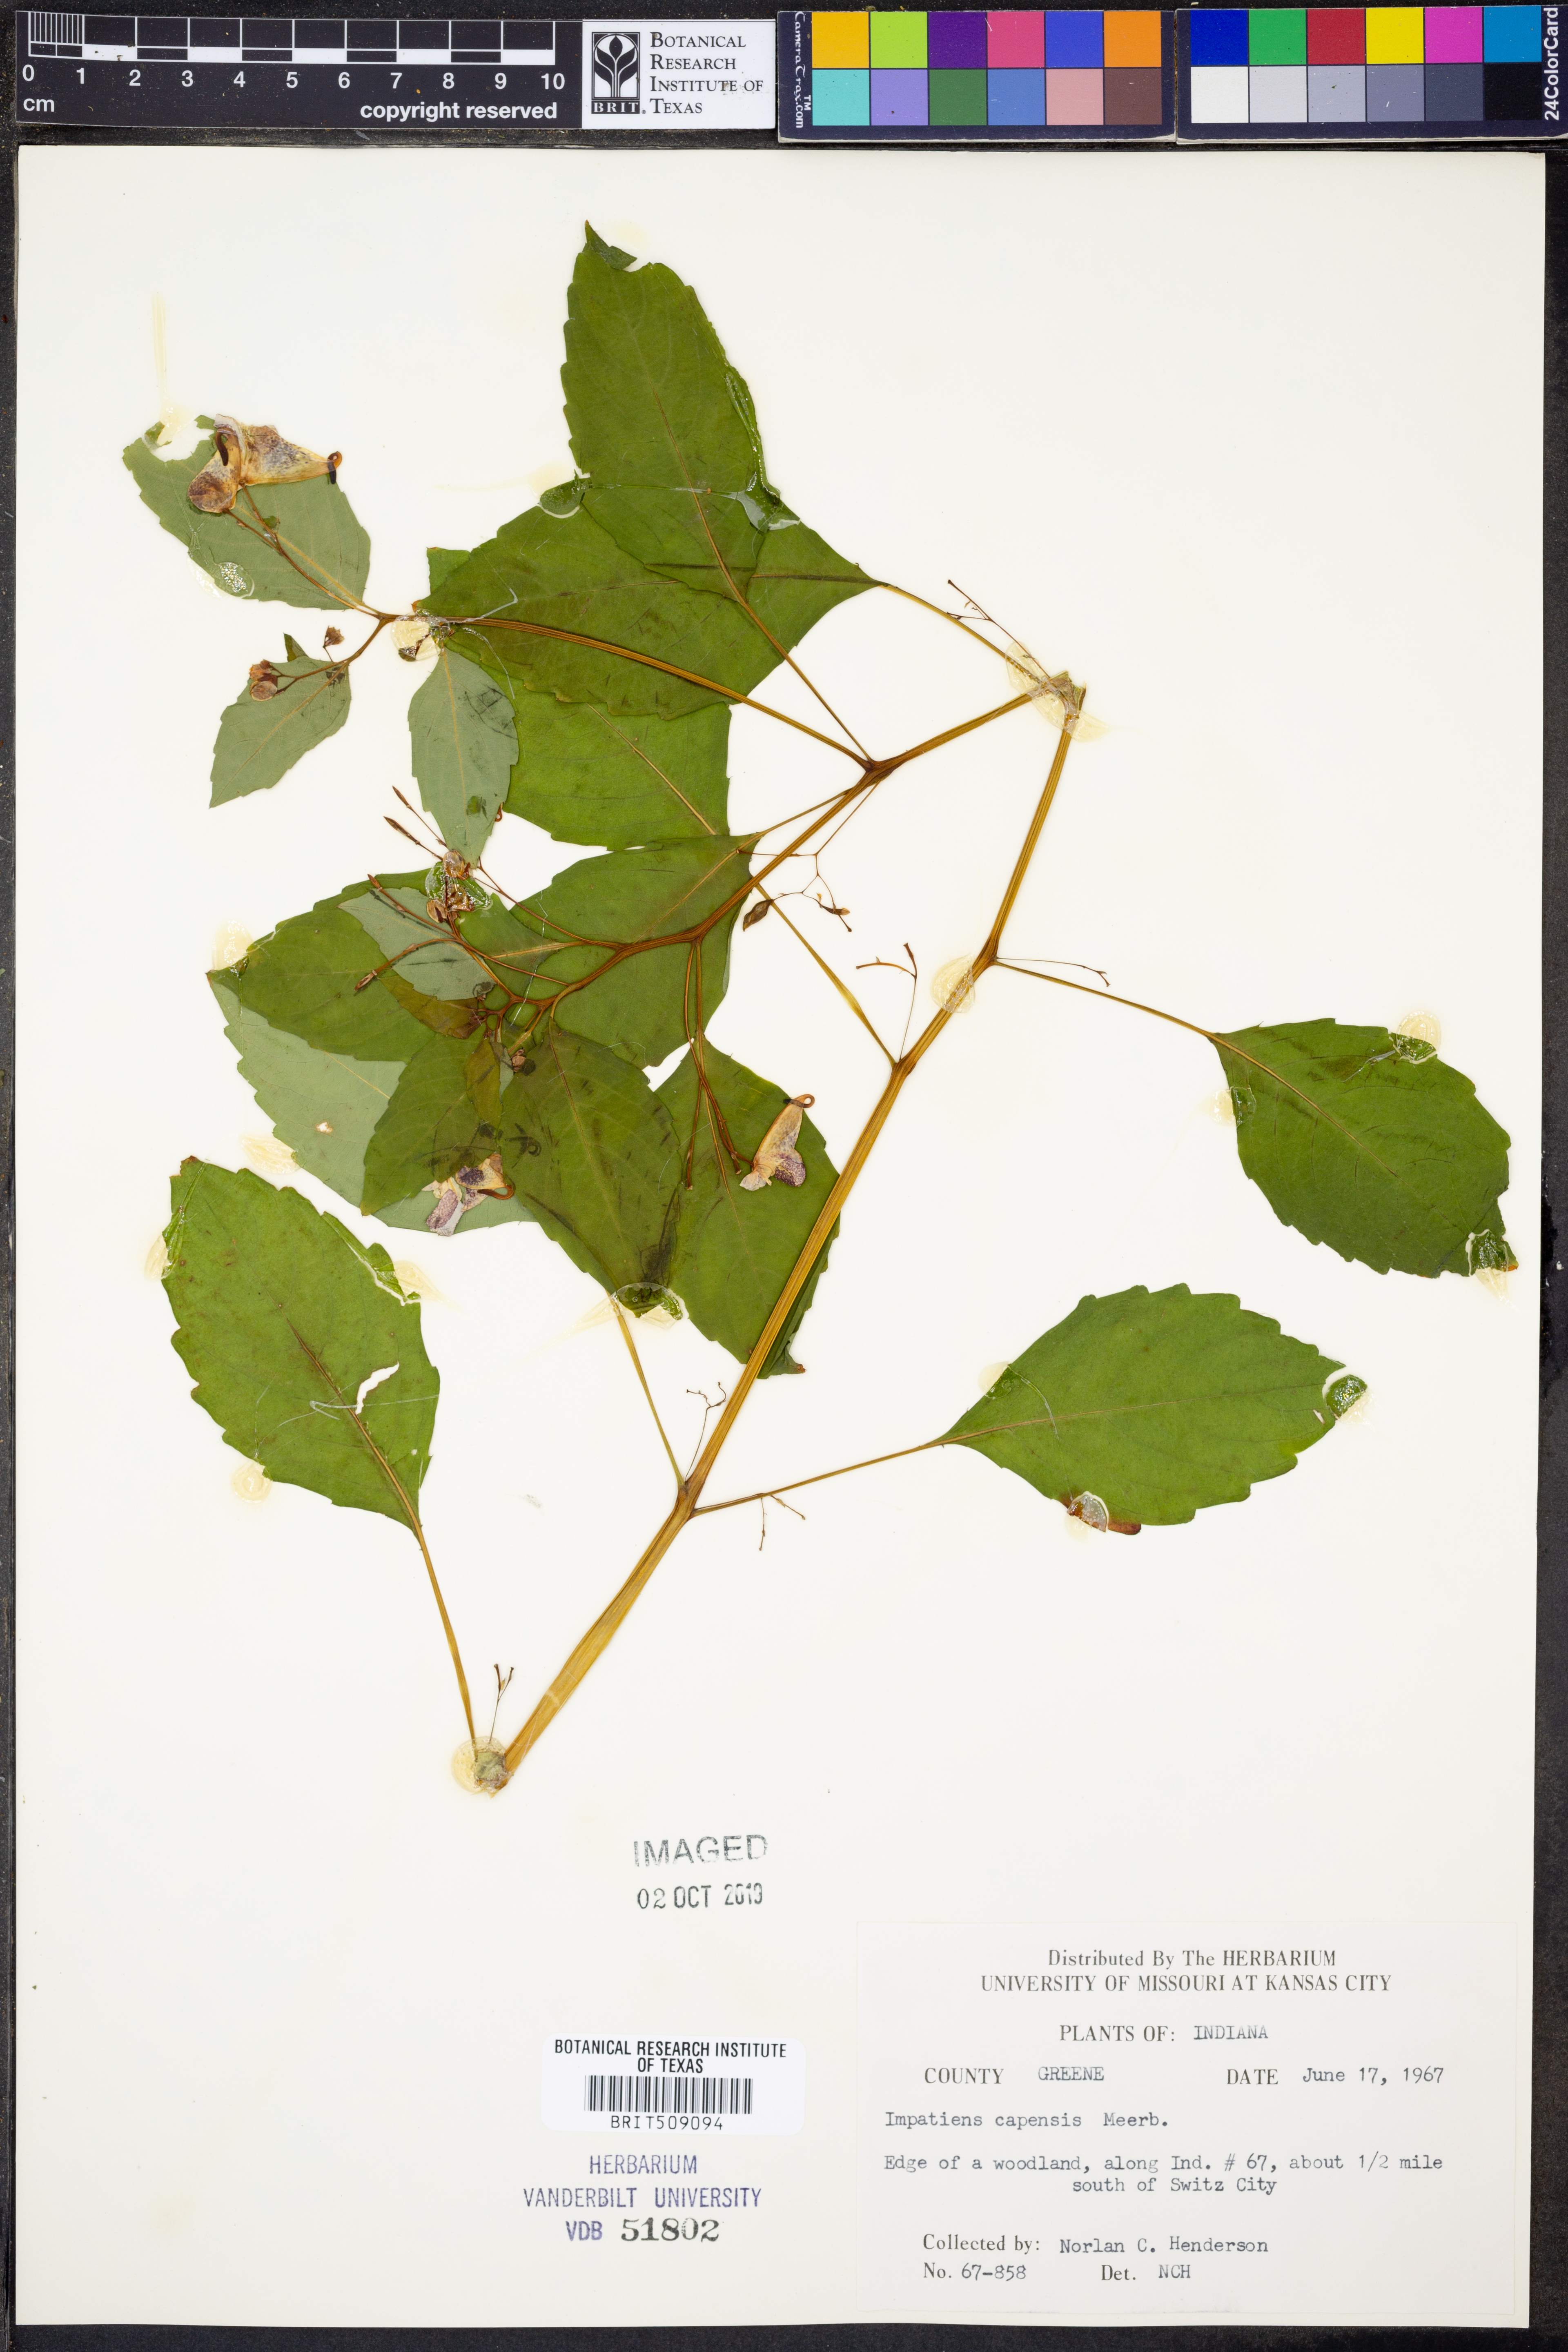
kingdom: Plantae
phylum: Tracheophyta
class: Magnoliopsida
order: Ericales
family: Balsaminaceae
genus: Impatiens
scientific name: Impatiens capensis
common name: Orange balsam
